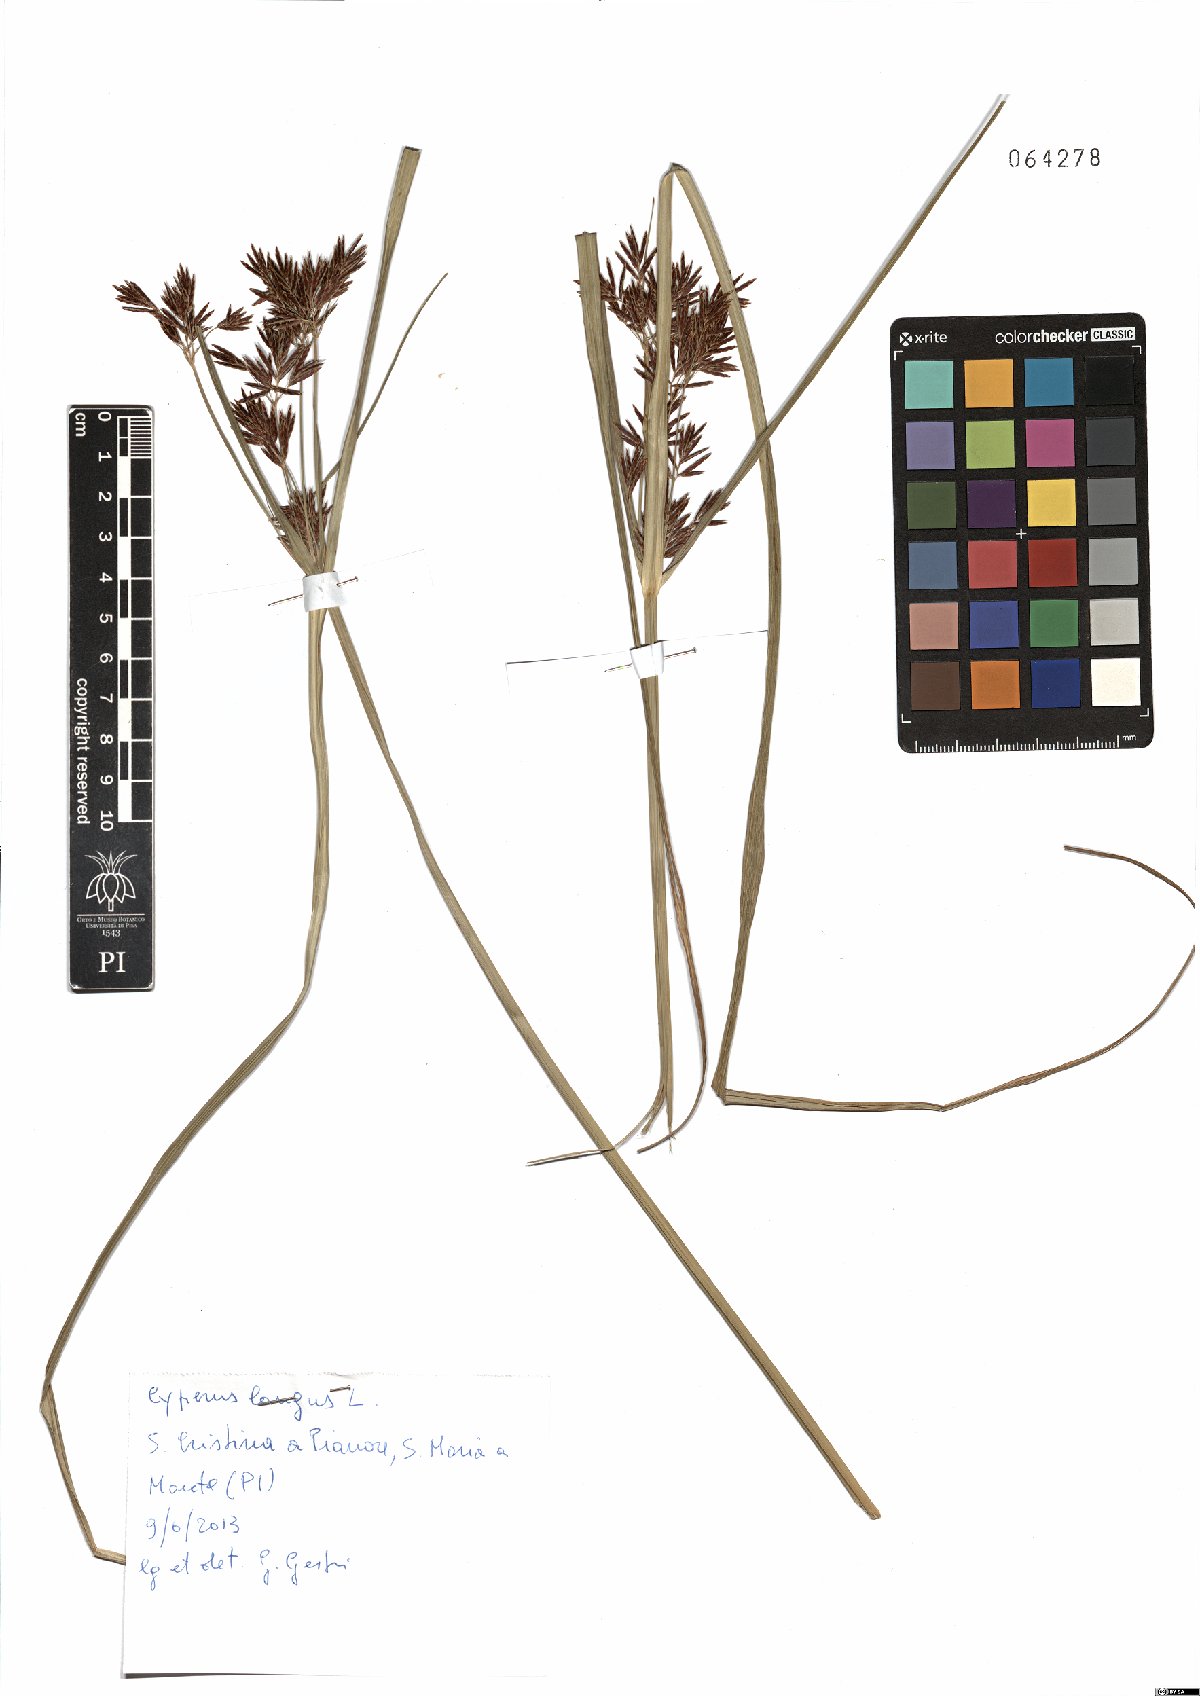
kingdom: Plantae
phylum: Tracheophyta
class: Liliopsida
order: Poales
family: Cyperaceae
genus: Cyperus
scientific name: Cyperus longus
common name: Galingale
